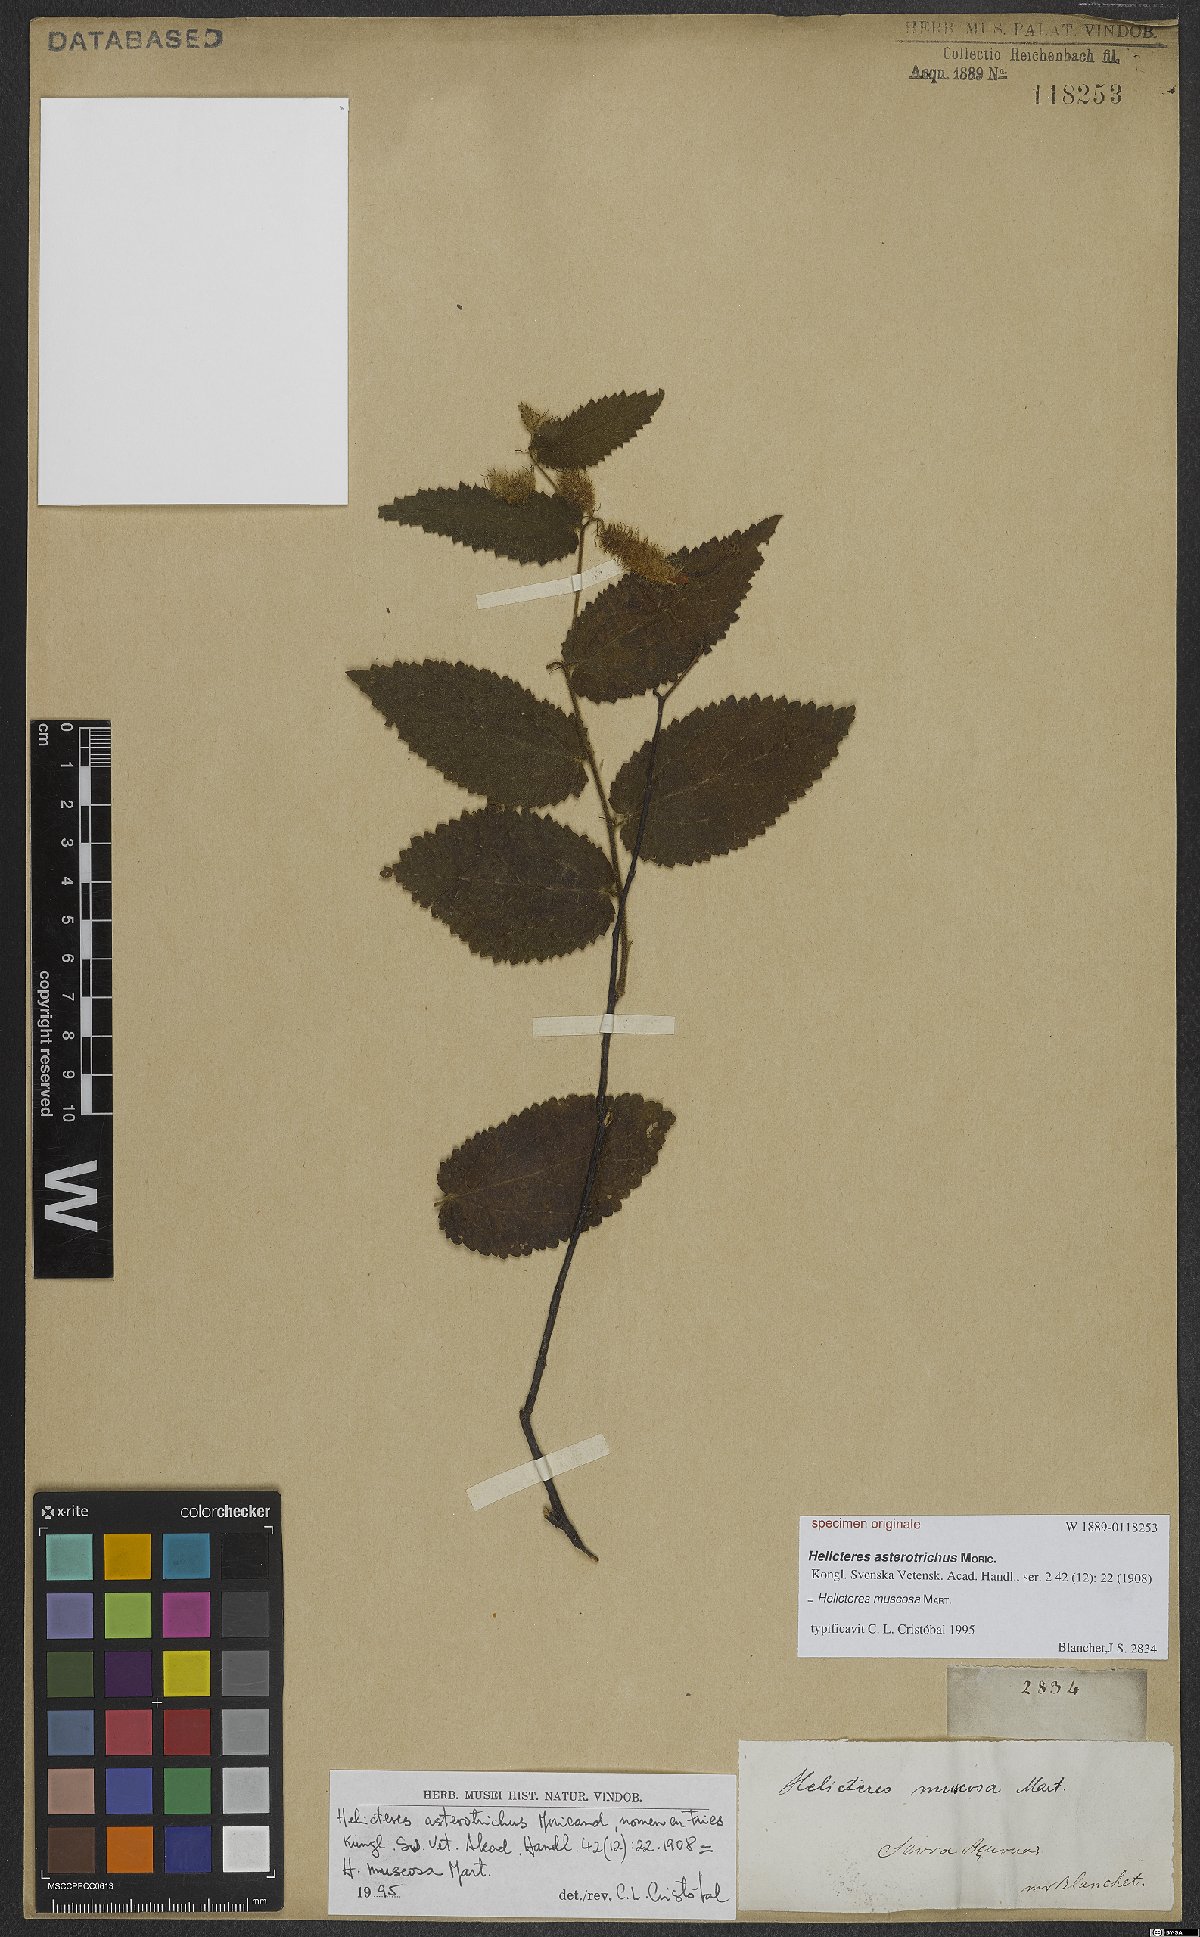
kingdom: Plantae
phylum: Tracheophyta
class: Magnoliopsida
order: Malvales
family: Malvaceae
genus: Helicteres
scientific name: Helicteres muscosa
